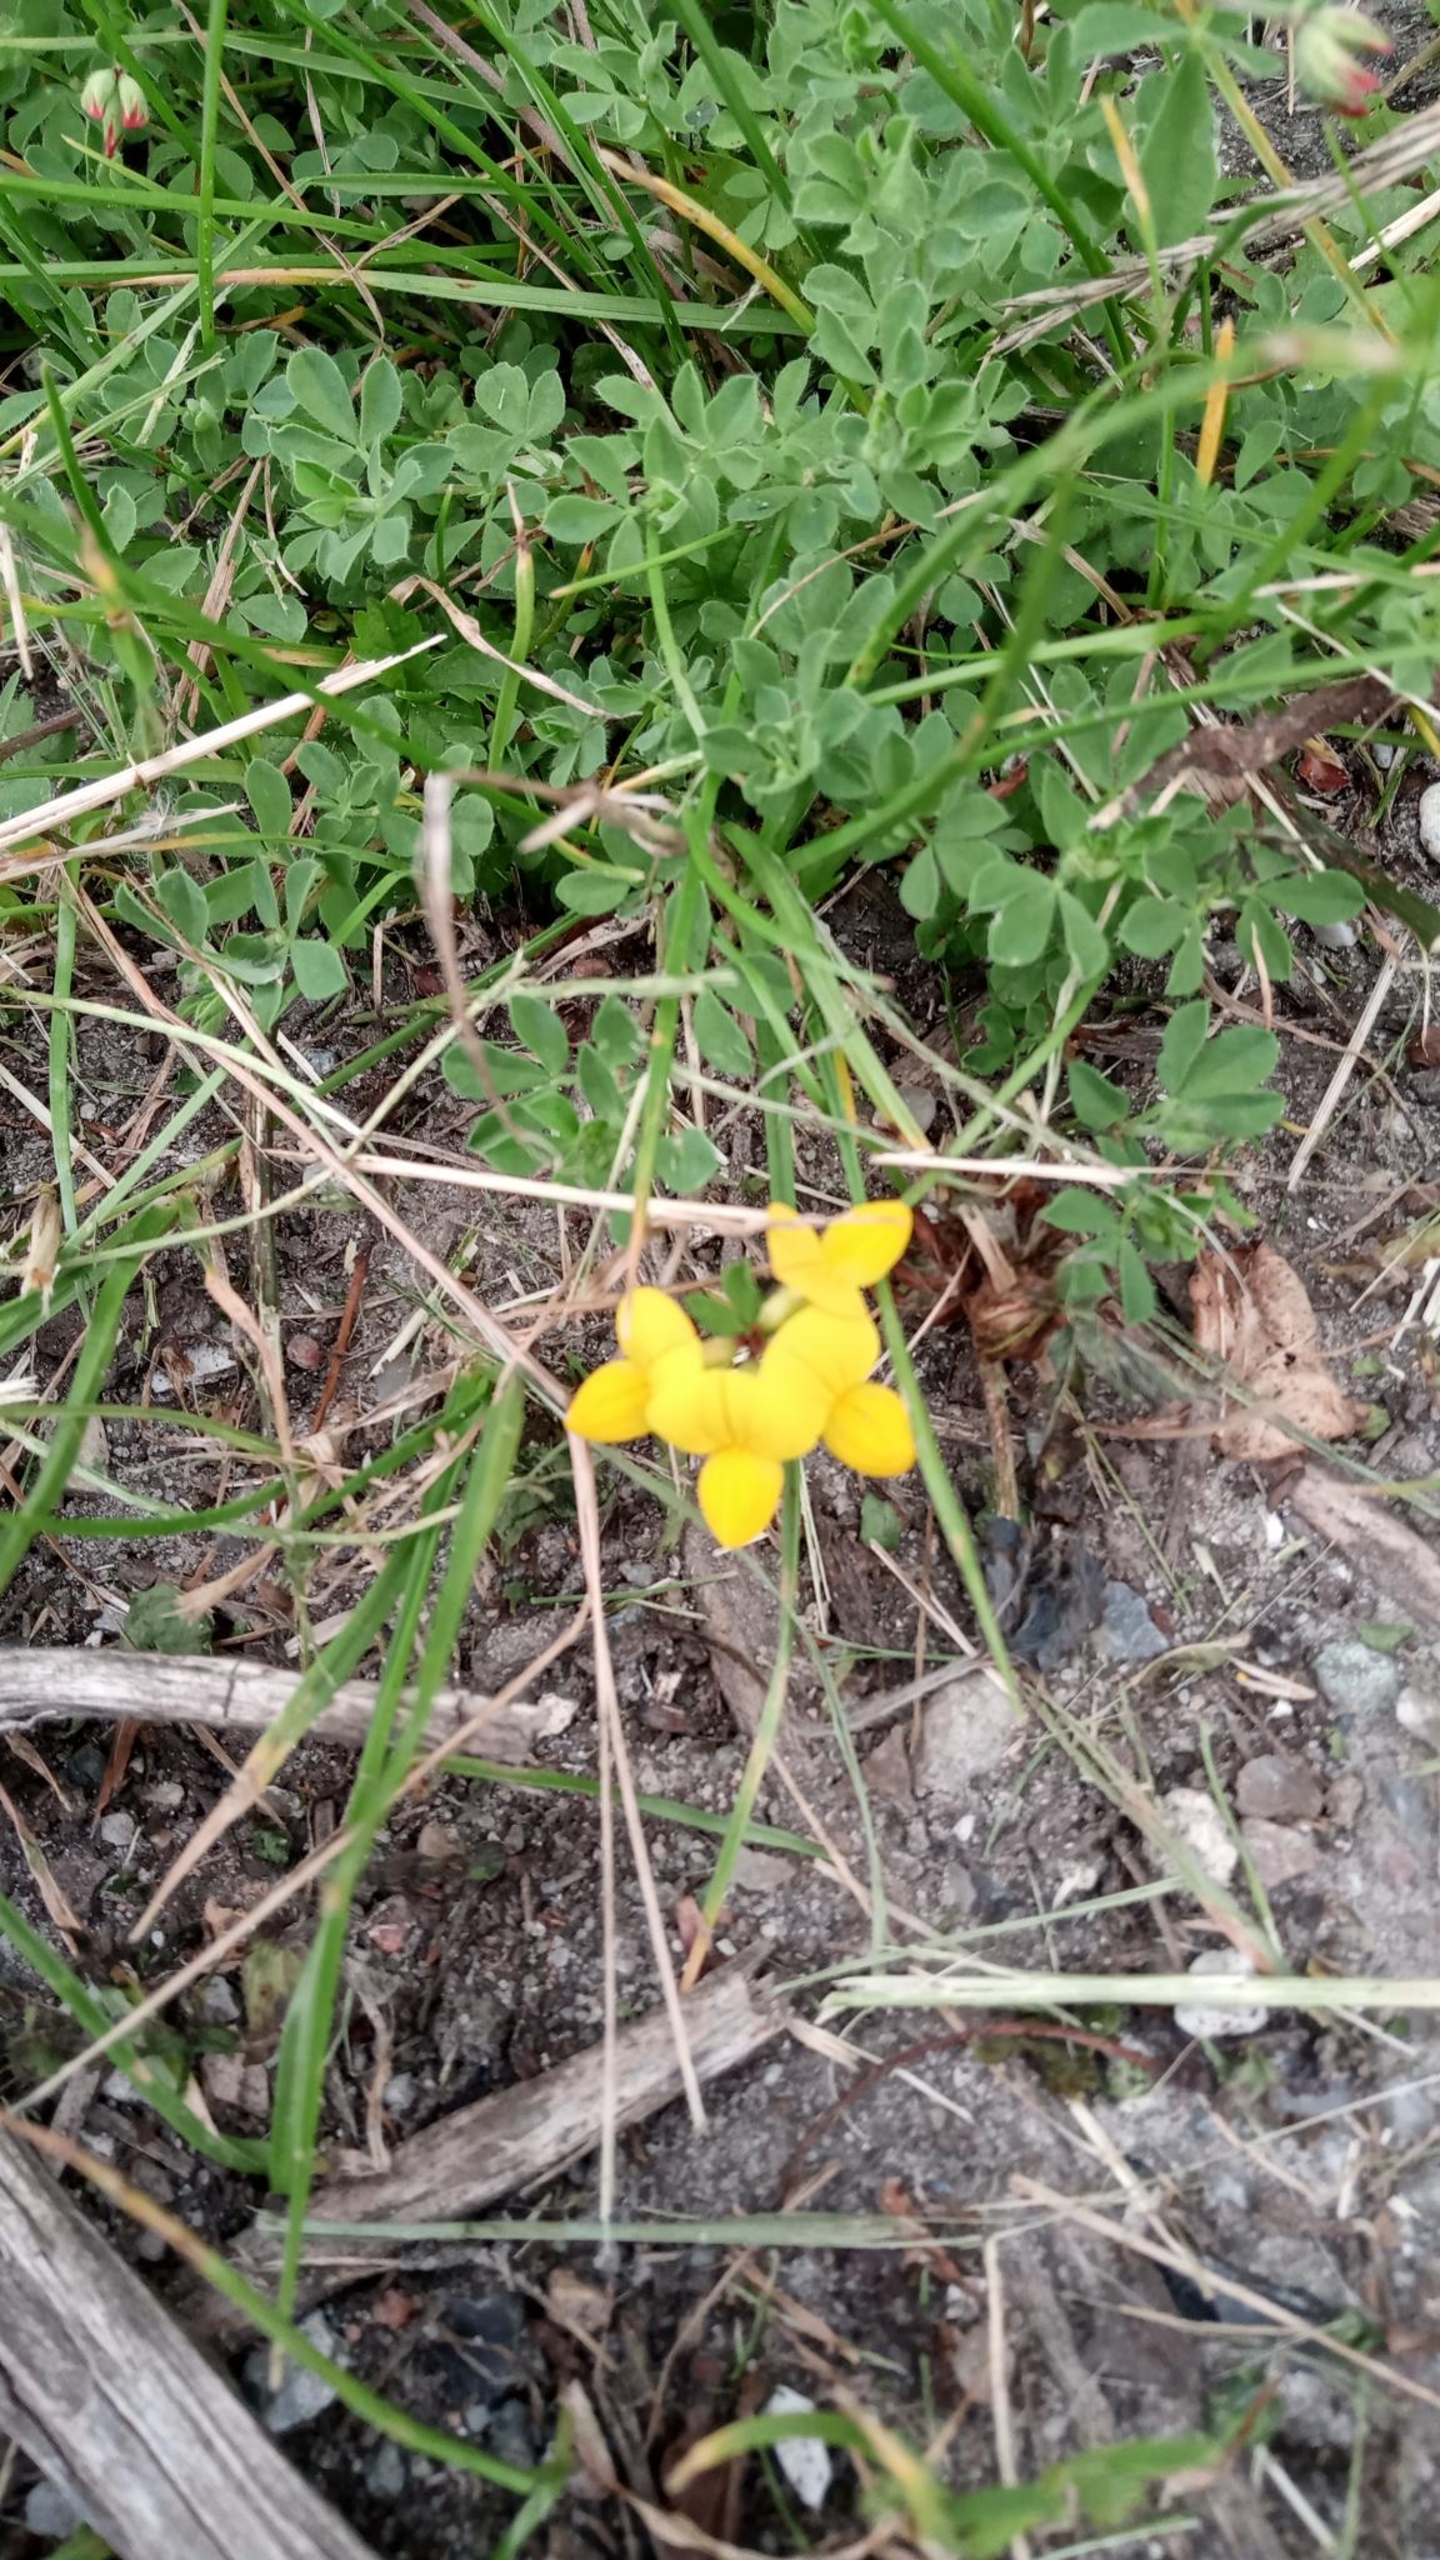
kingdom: Plantae
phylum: Tracheophyta
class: Magnoliopsida
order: Fabales
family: Fabaceae
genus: Lotus
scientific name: Lotus corniculatus
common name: Almindelig kællingetand
